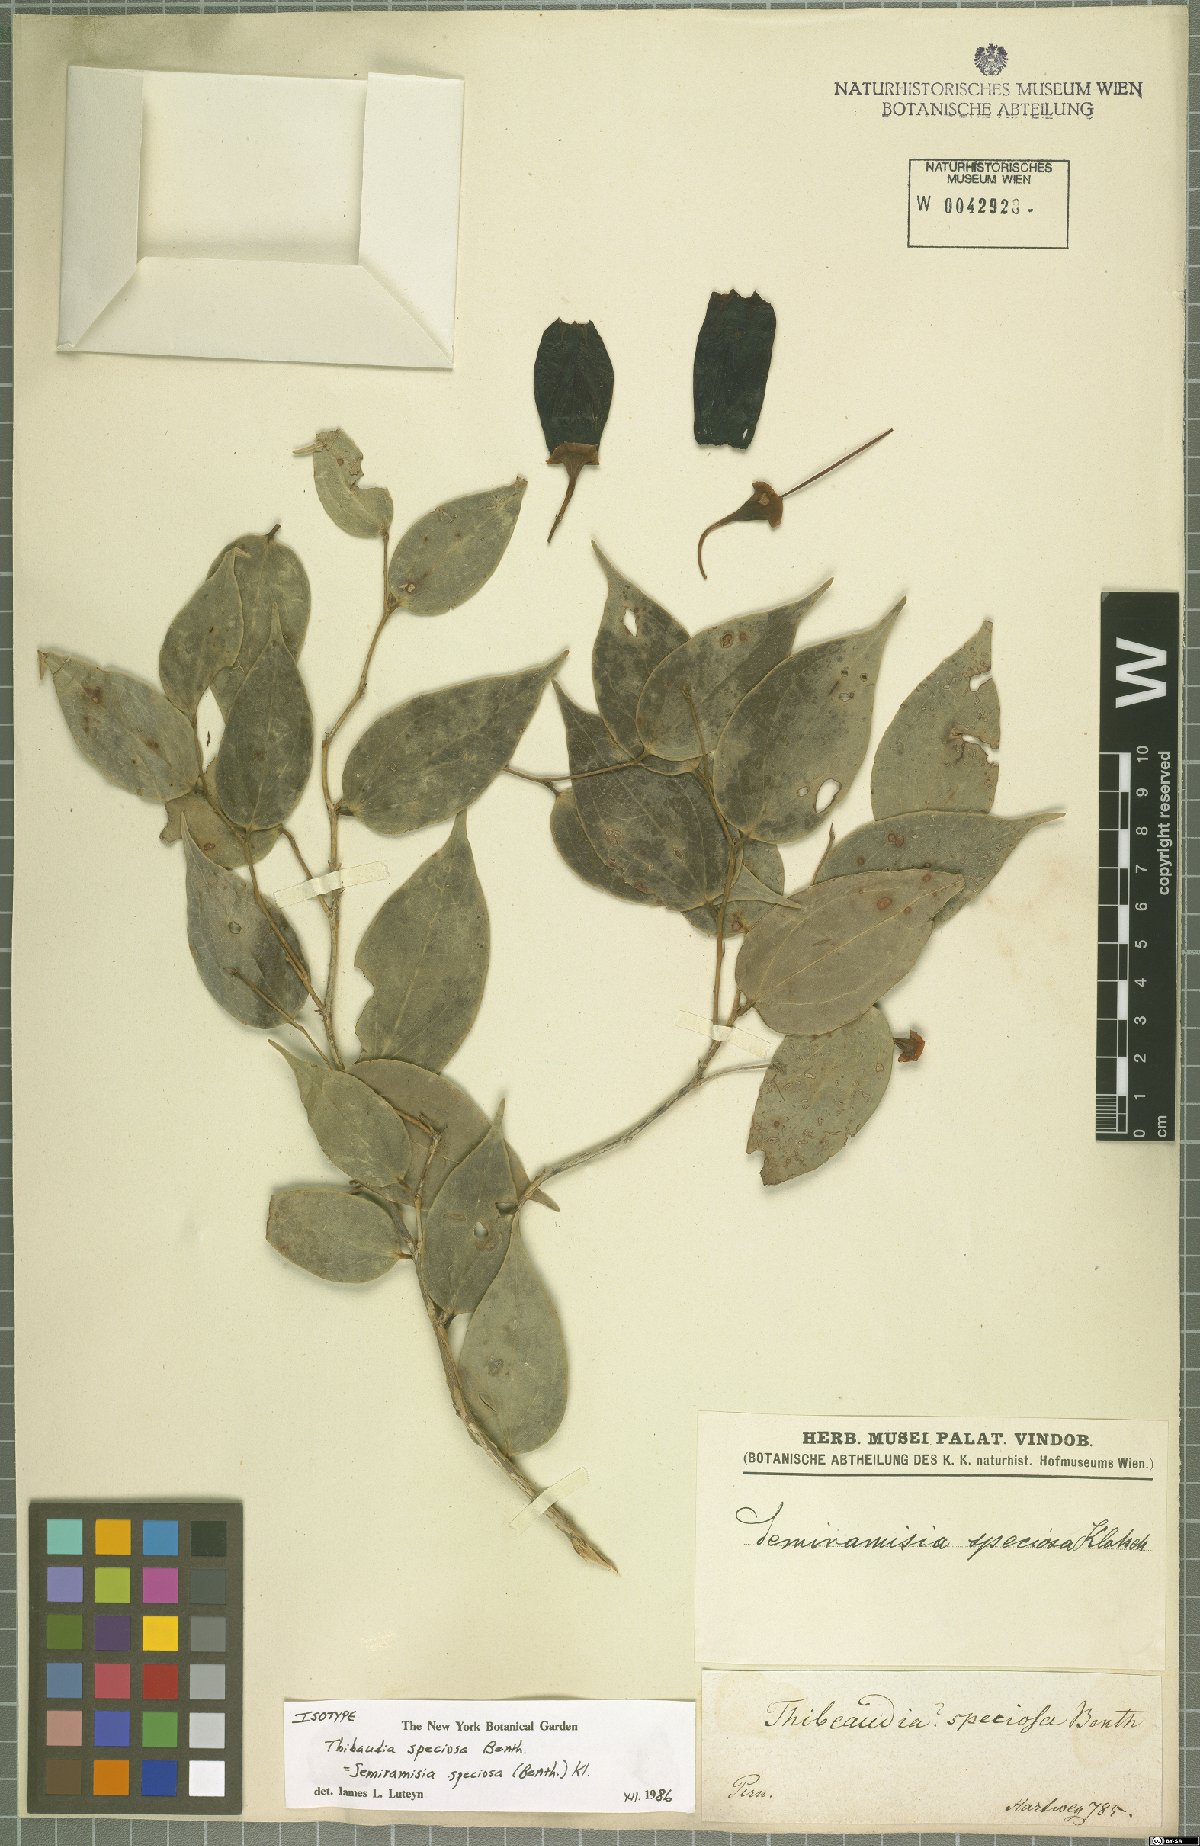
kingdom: Plantae
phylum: Tracheophyta
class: Magnoliopsida
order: Ericales
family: Ericaceae
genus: Semiramisia
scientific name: Semiramisia speciosa
